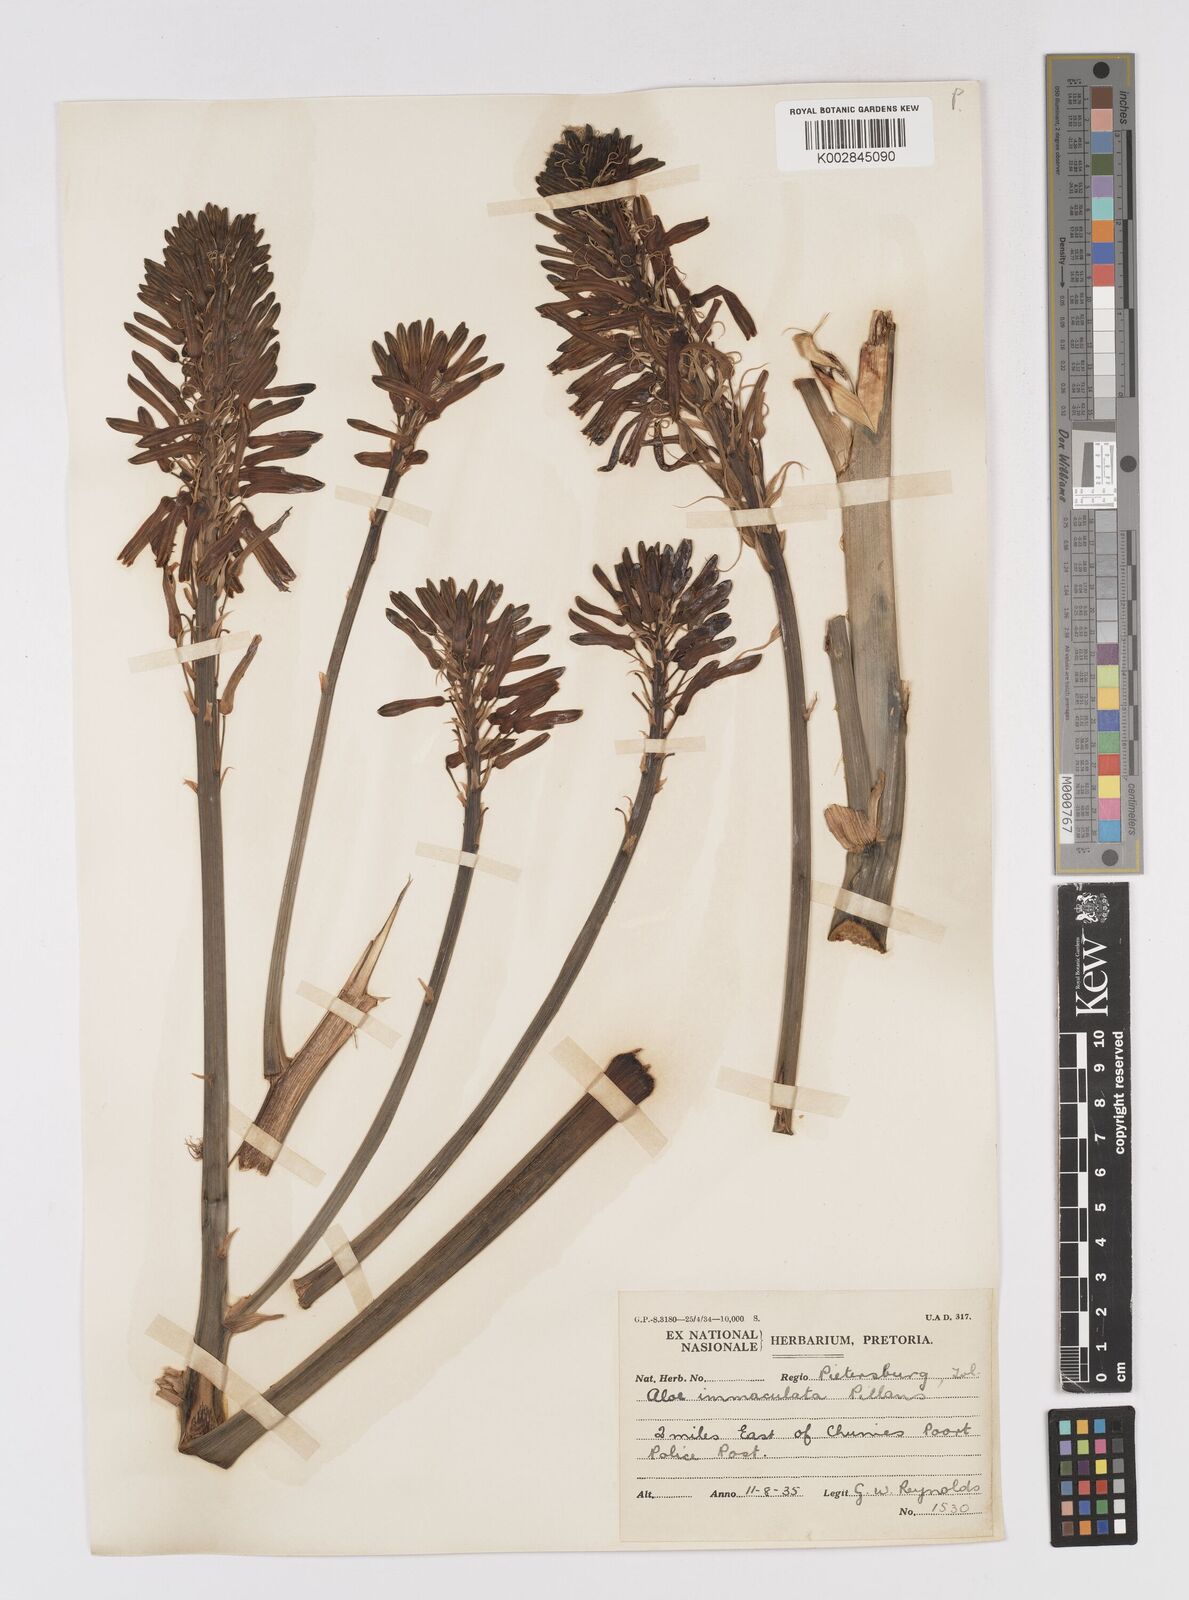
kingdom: Plantae
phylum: Tracheophyta
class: Liliopsida
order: Asparagales
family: Asphodelaceae
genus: Aloe
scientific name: Aloe immaculata
